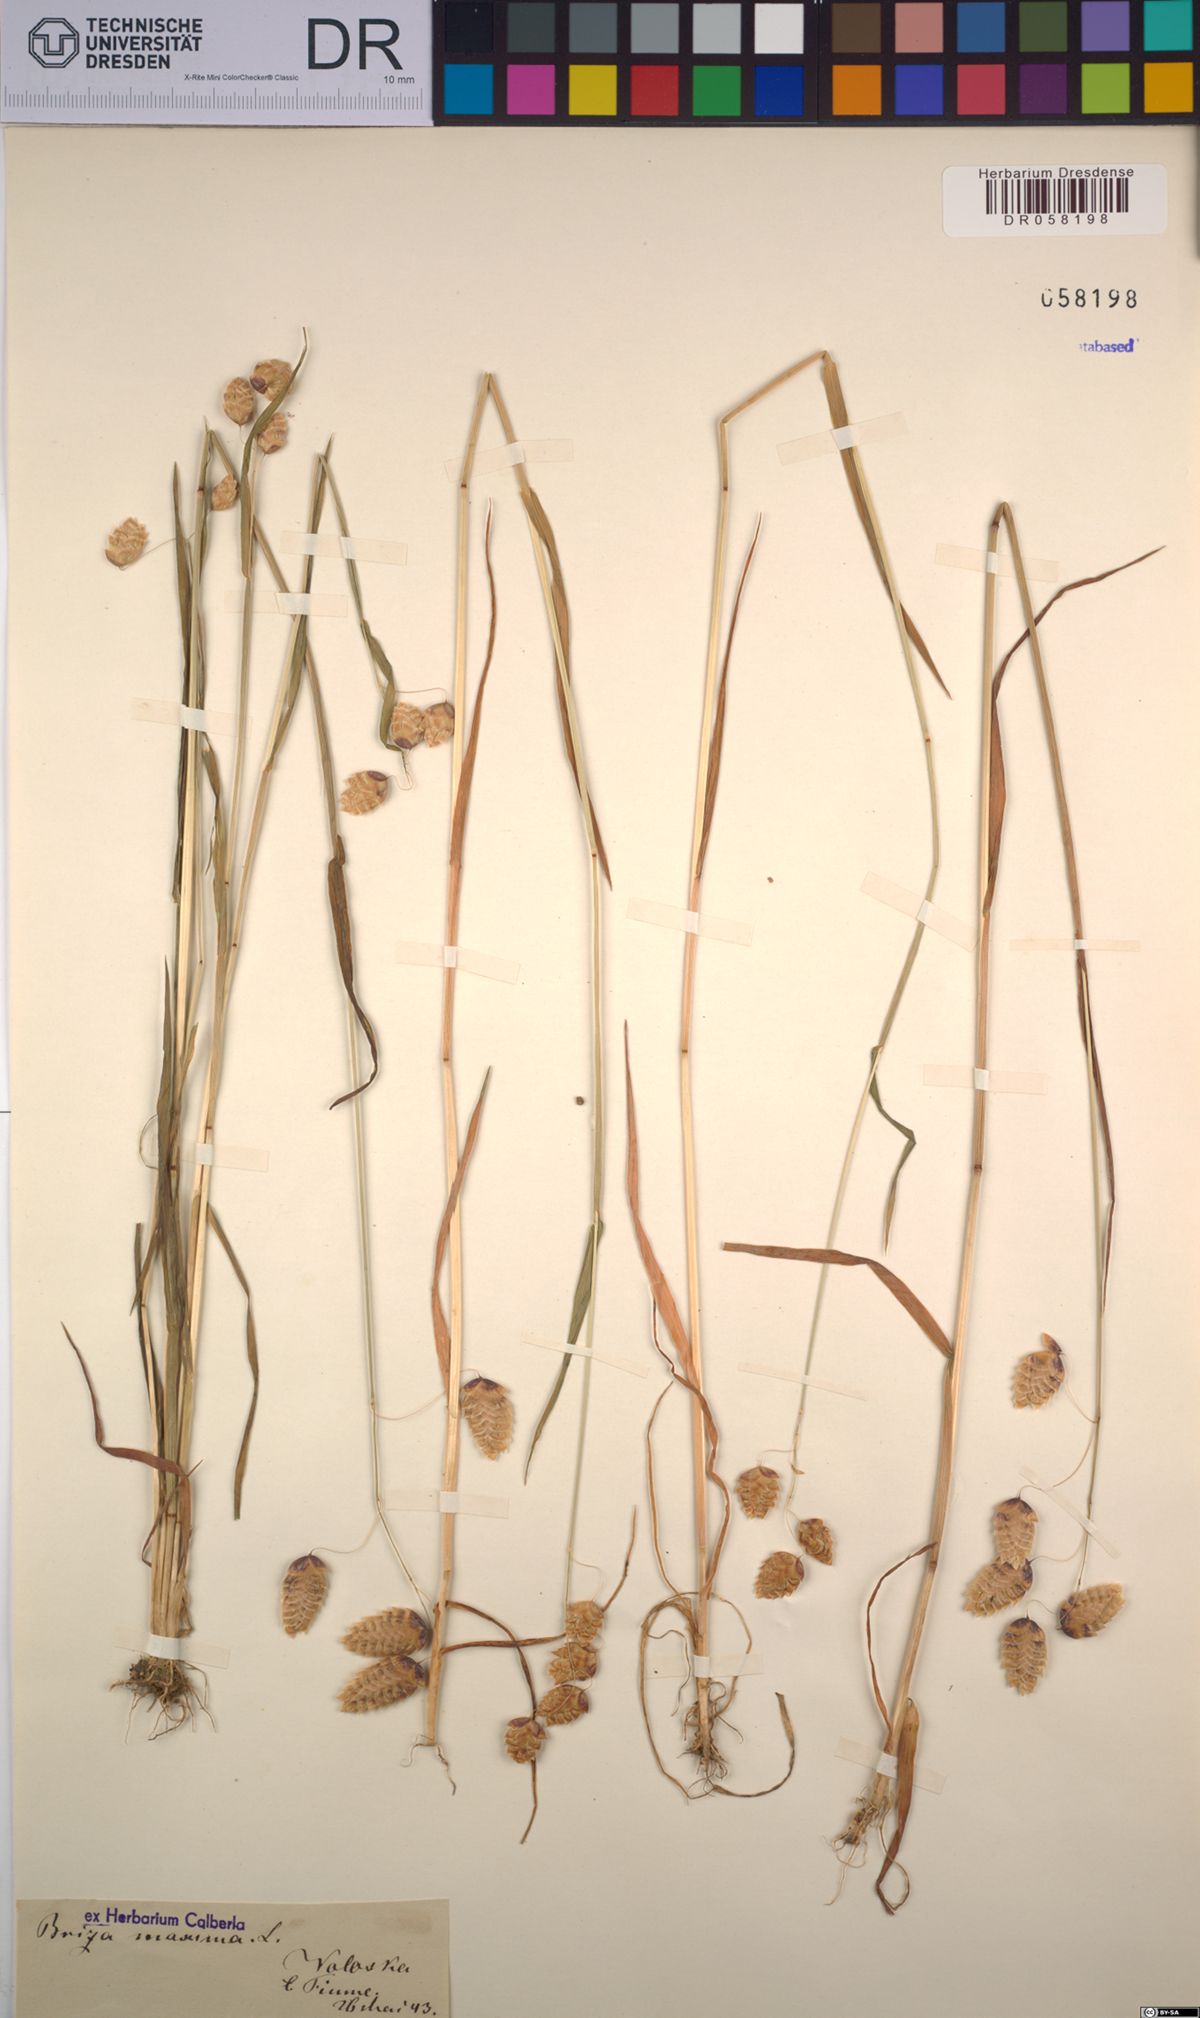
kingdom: Plantae
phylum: Tracheophyta
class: Liliopsida
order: Poales
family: Poaceae
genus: Briza
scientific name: Briza maxima
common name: Big quakinggrass
